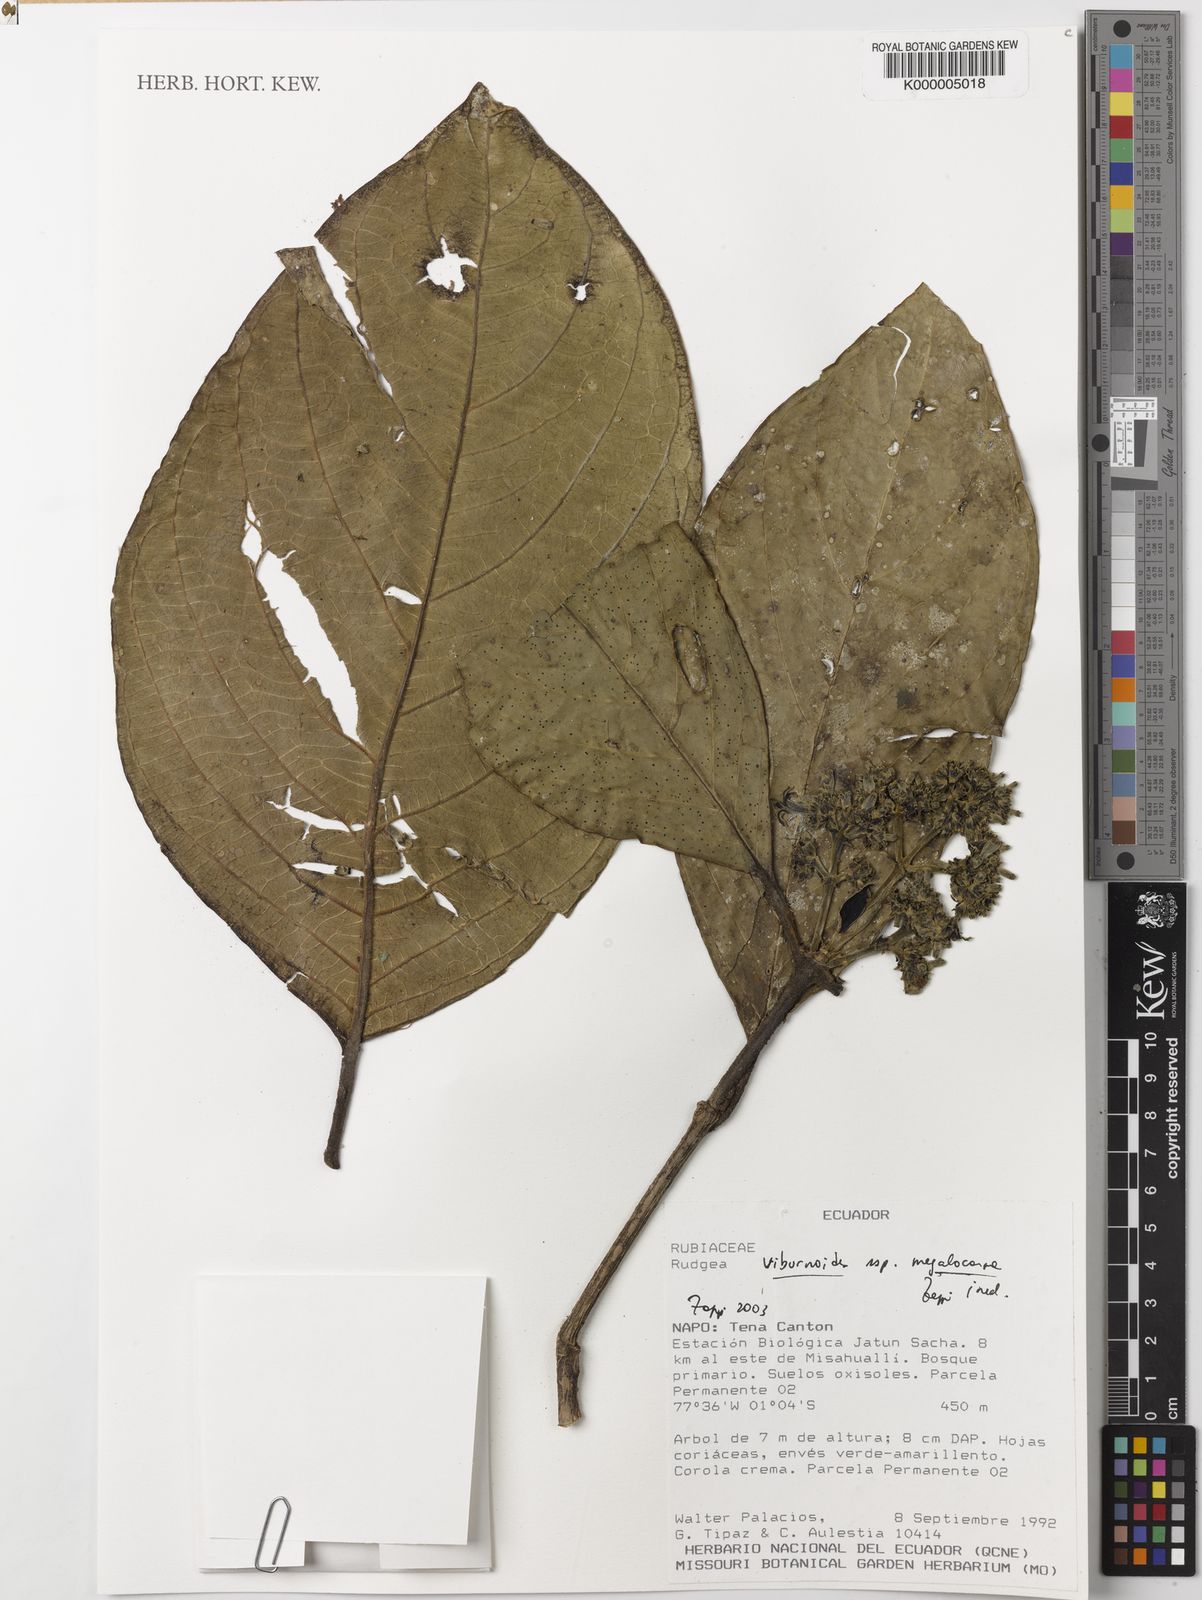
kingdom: Plantae
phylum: Tracheophyta
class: Magnoliopsida
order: Gentianales
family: Rubiaceae
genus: Rudgea
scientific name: Rudgea viburnoides
